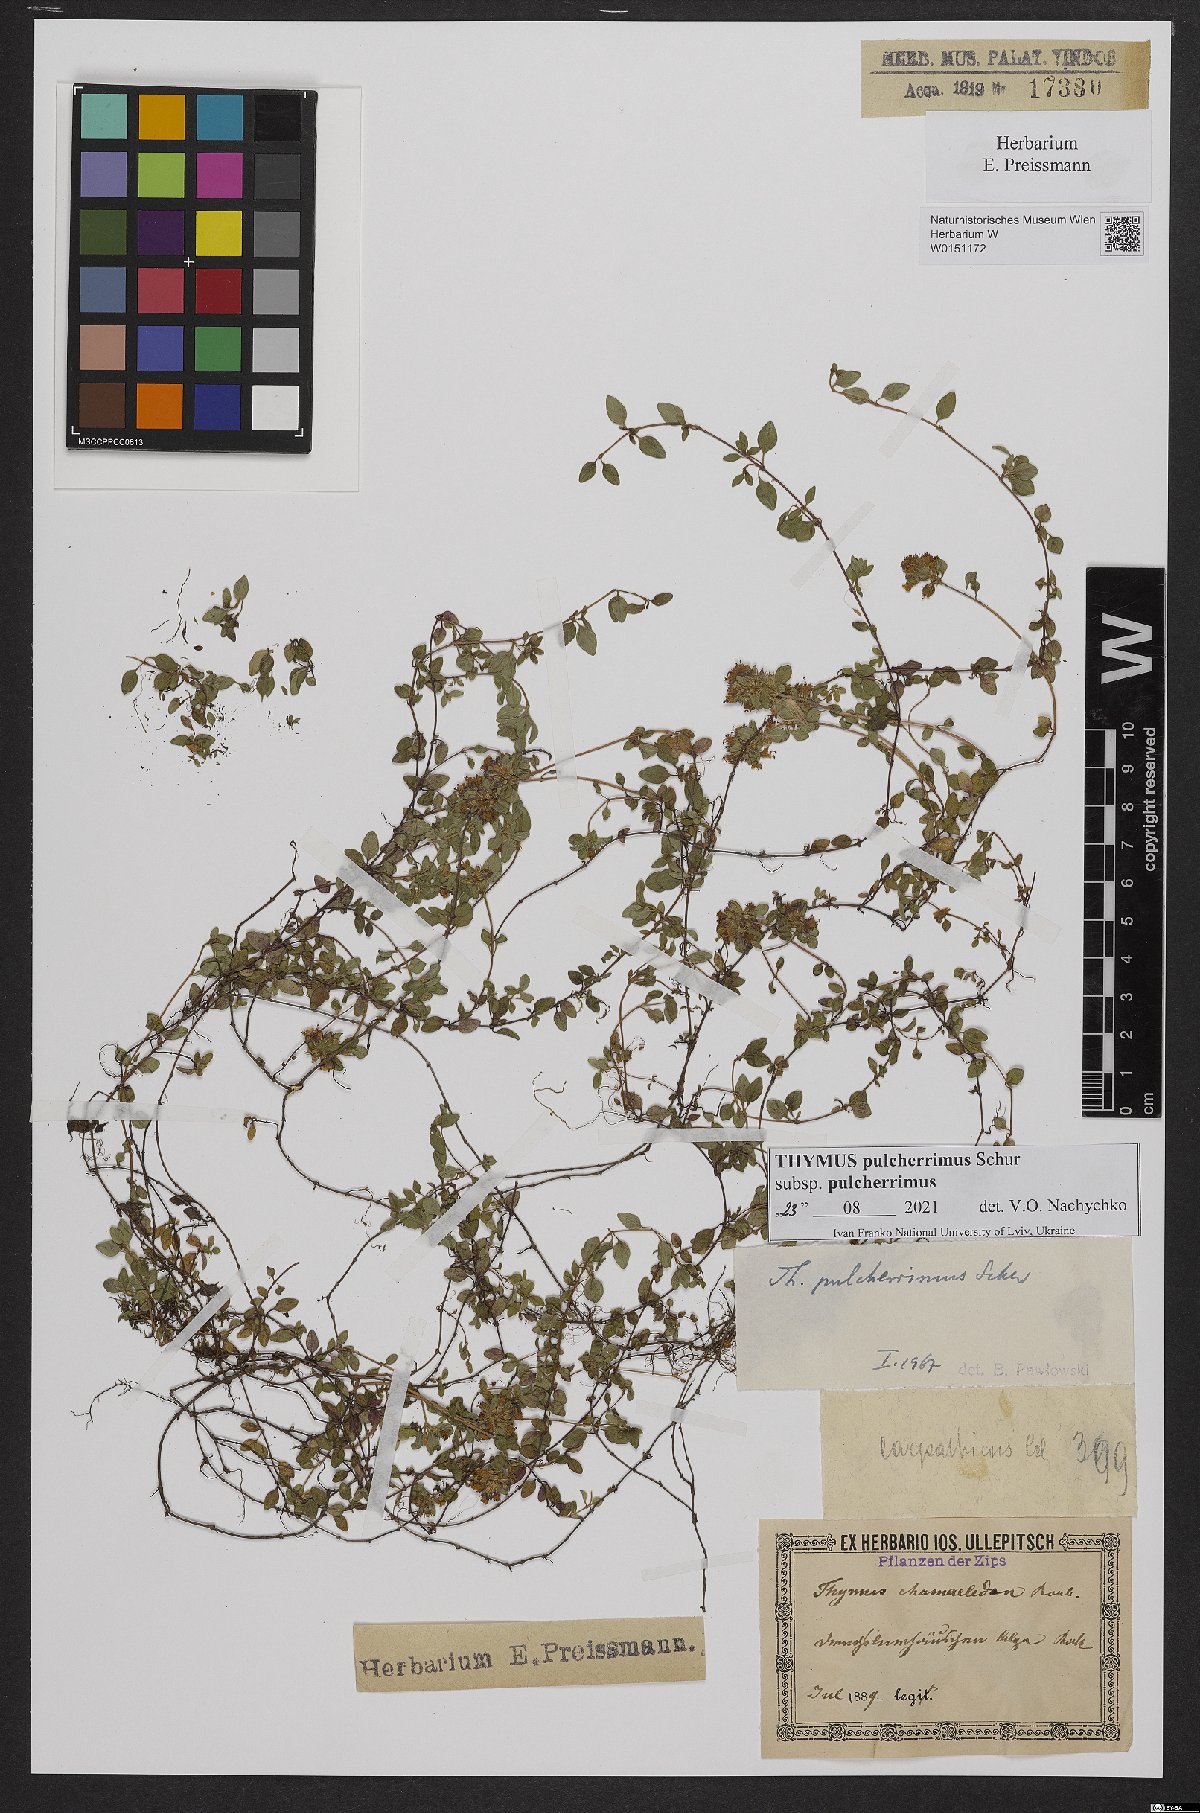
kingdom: Plantae
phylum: Tracheophyta
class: Magnoliopsida
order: Lamiales
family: Lamiaceae
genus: Thymus
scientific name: Thymus pulcherrimus
